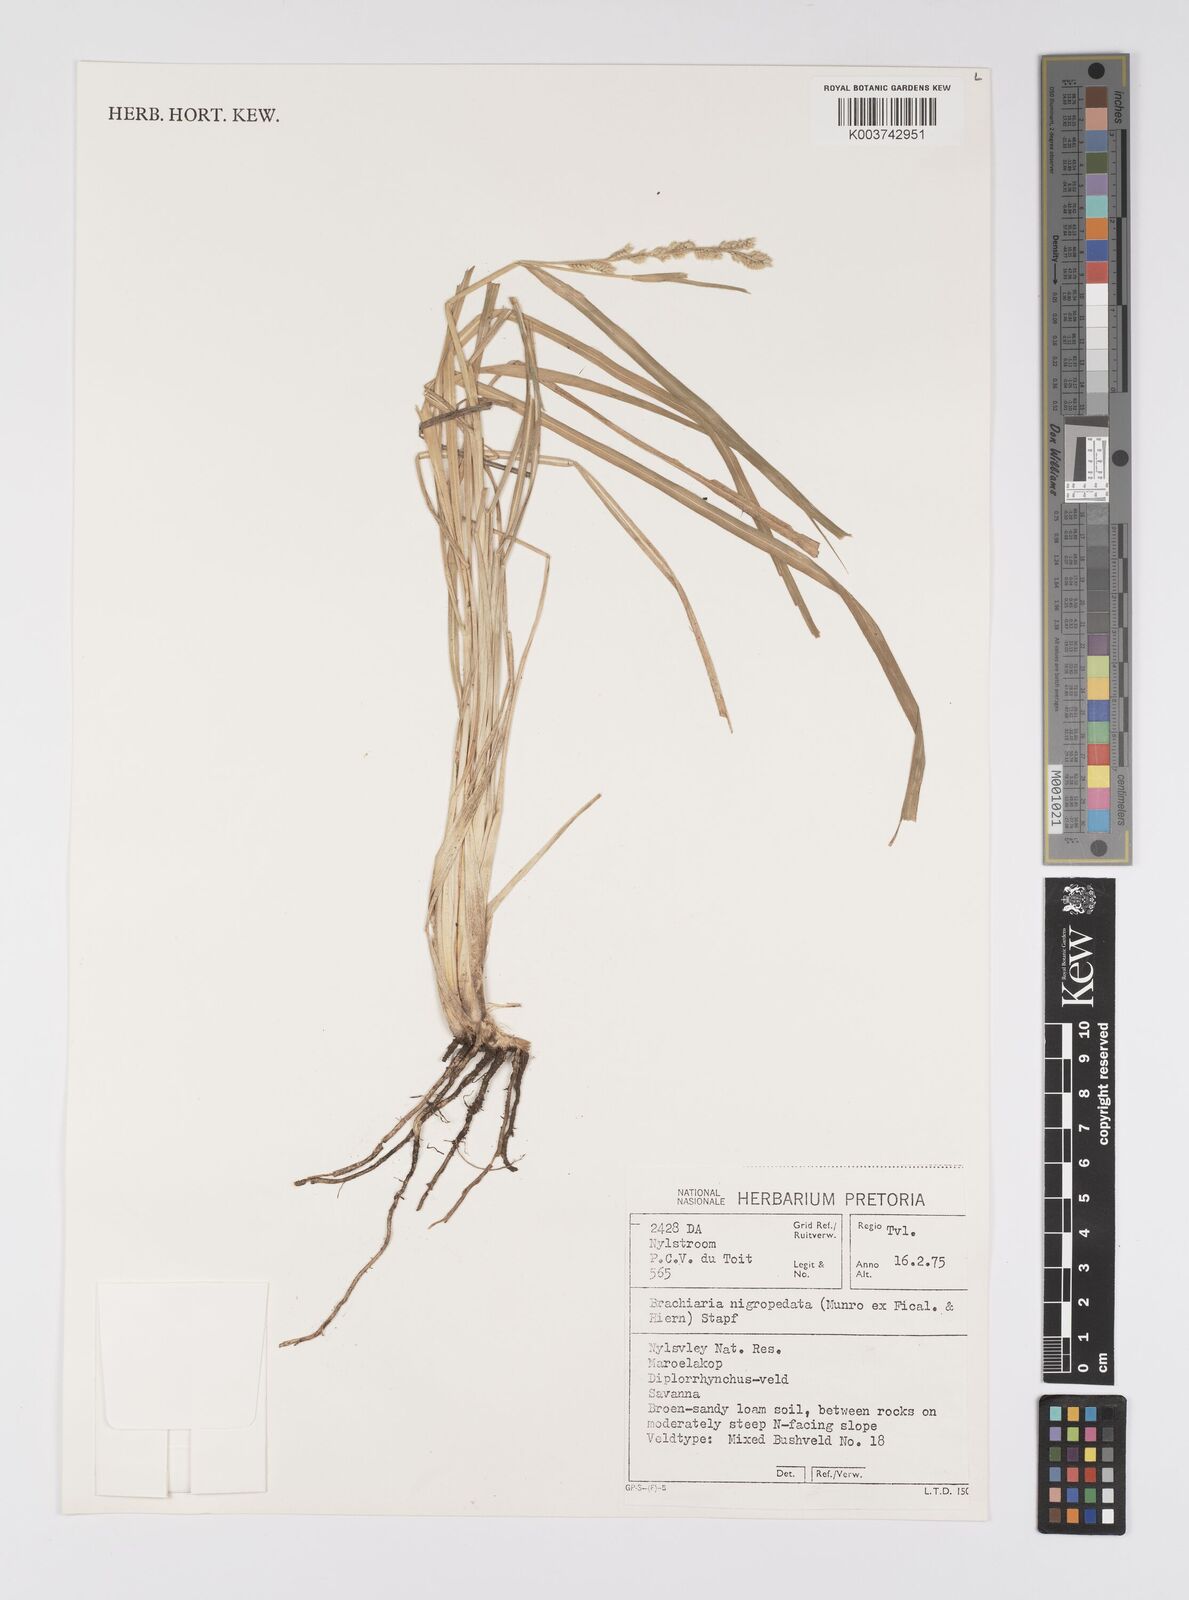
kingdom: Plantae
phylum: Tracheophyta
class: Liliopsida
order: Poales
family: Poaceae
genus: Urochloa
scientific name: Urochloa nigropedata
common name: Spotted signal grass
